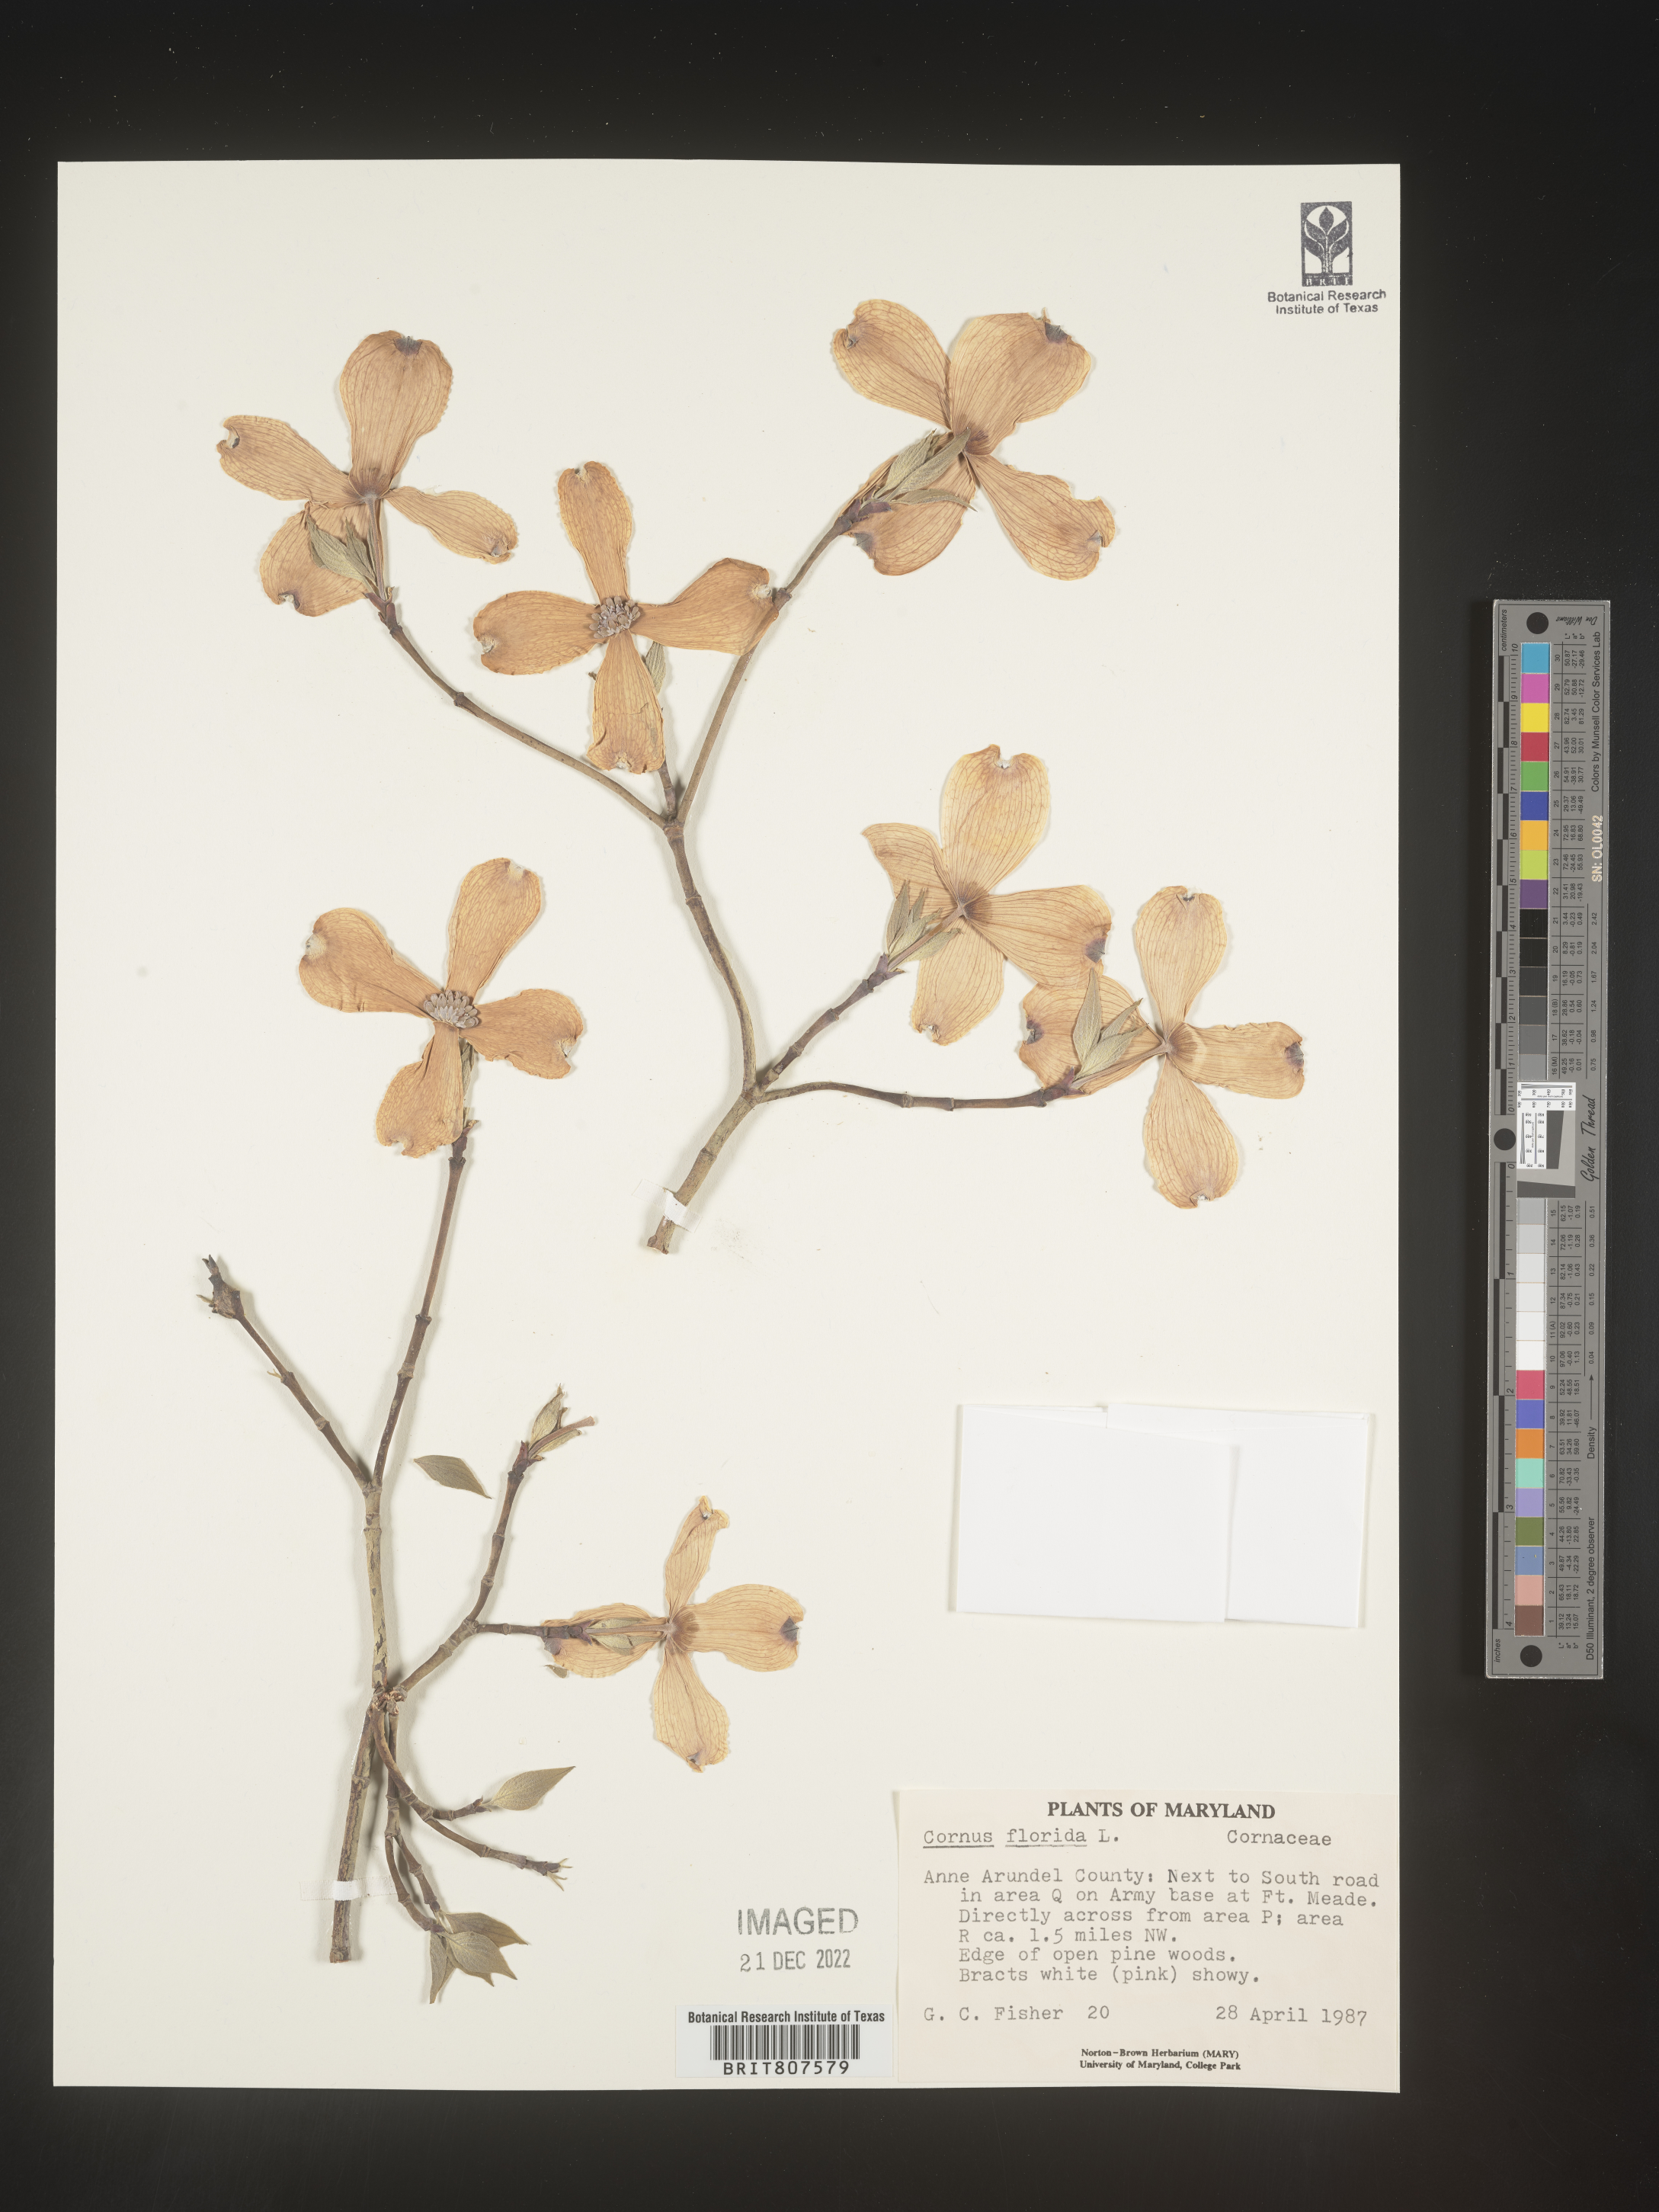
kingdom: Plantae
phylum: Tracheophyta
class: Magnoliopsida
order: Cornales
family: Cornaceae
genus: Cornus
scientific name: Cornus florida
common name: Flowering dogwood
